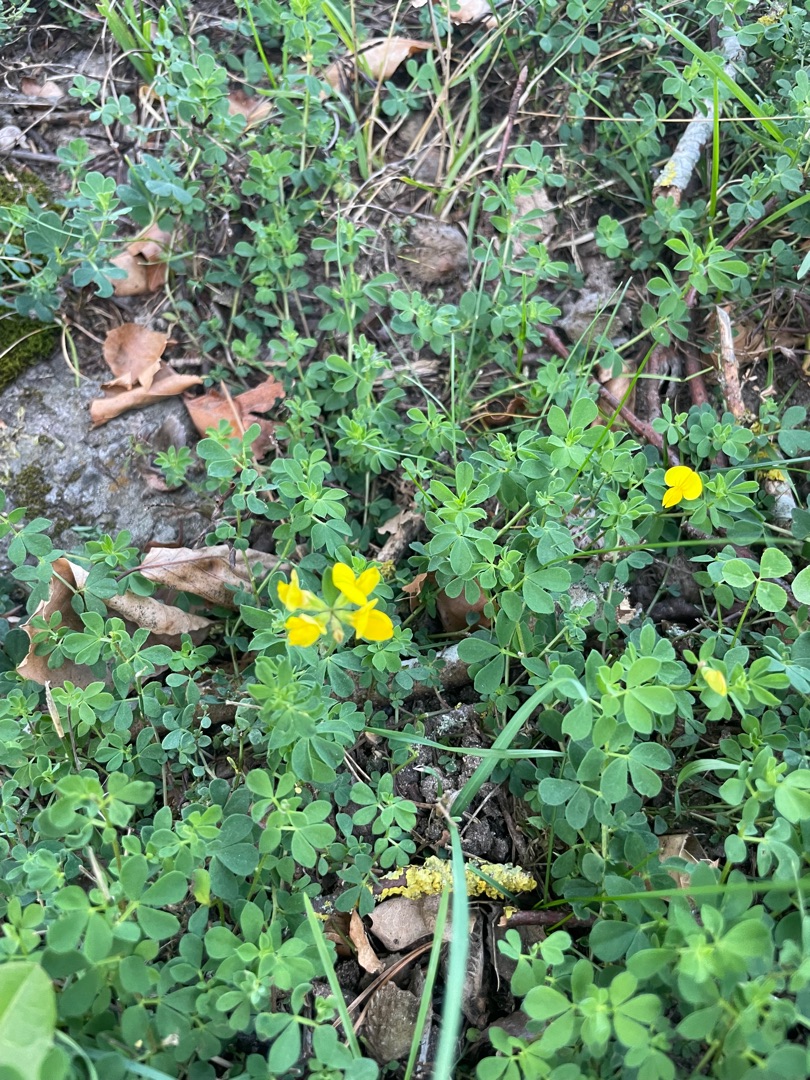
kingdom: Plantae
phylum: Tracheophyta
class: Magnoliopsida
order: Fabales
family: Fabaceae
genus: Lotus
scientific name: Lotus corniculatus
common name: Almindelig kællingetand
